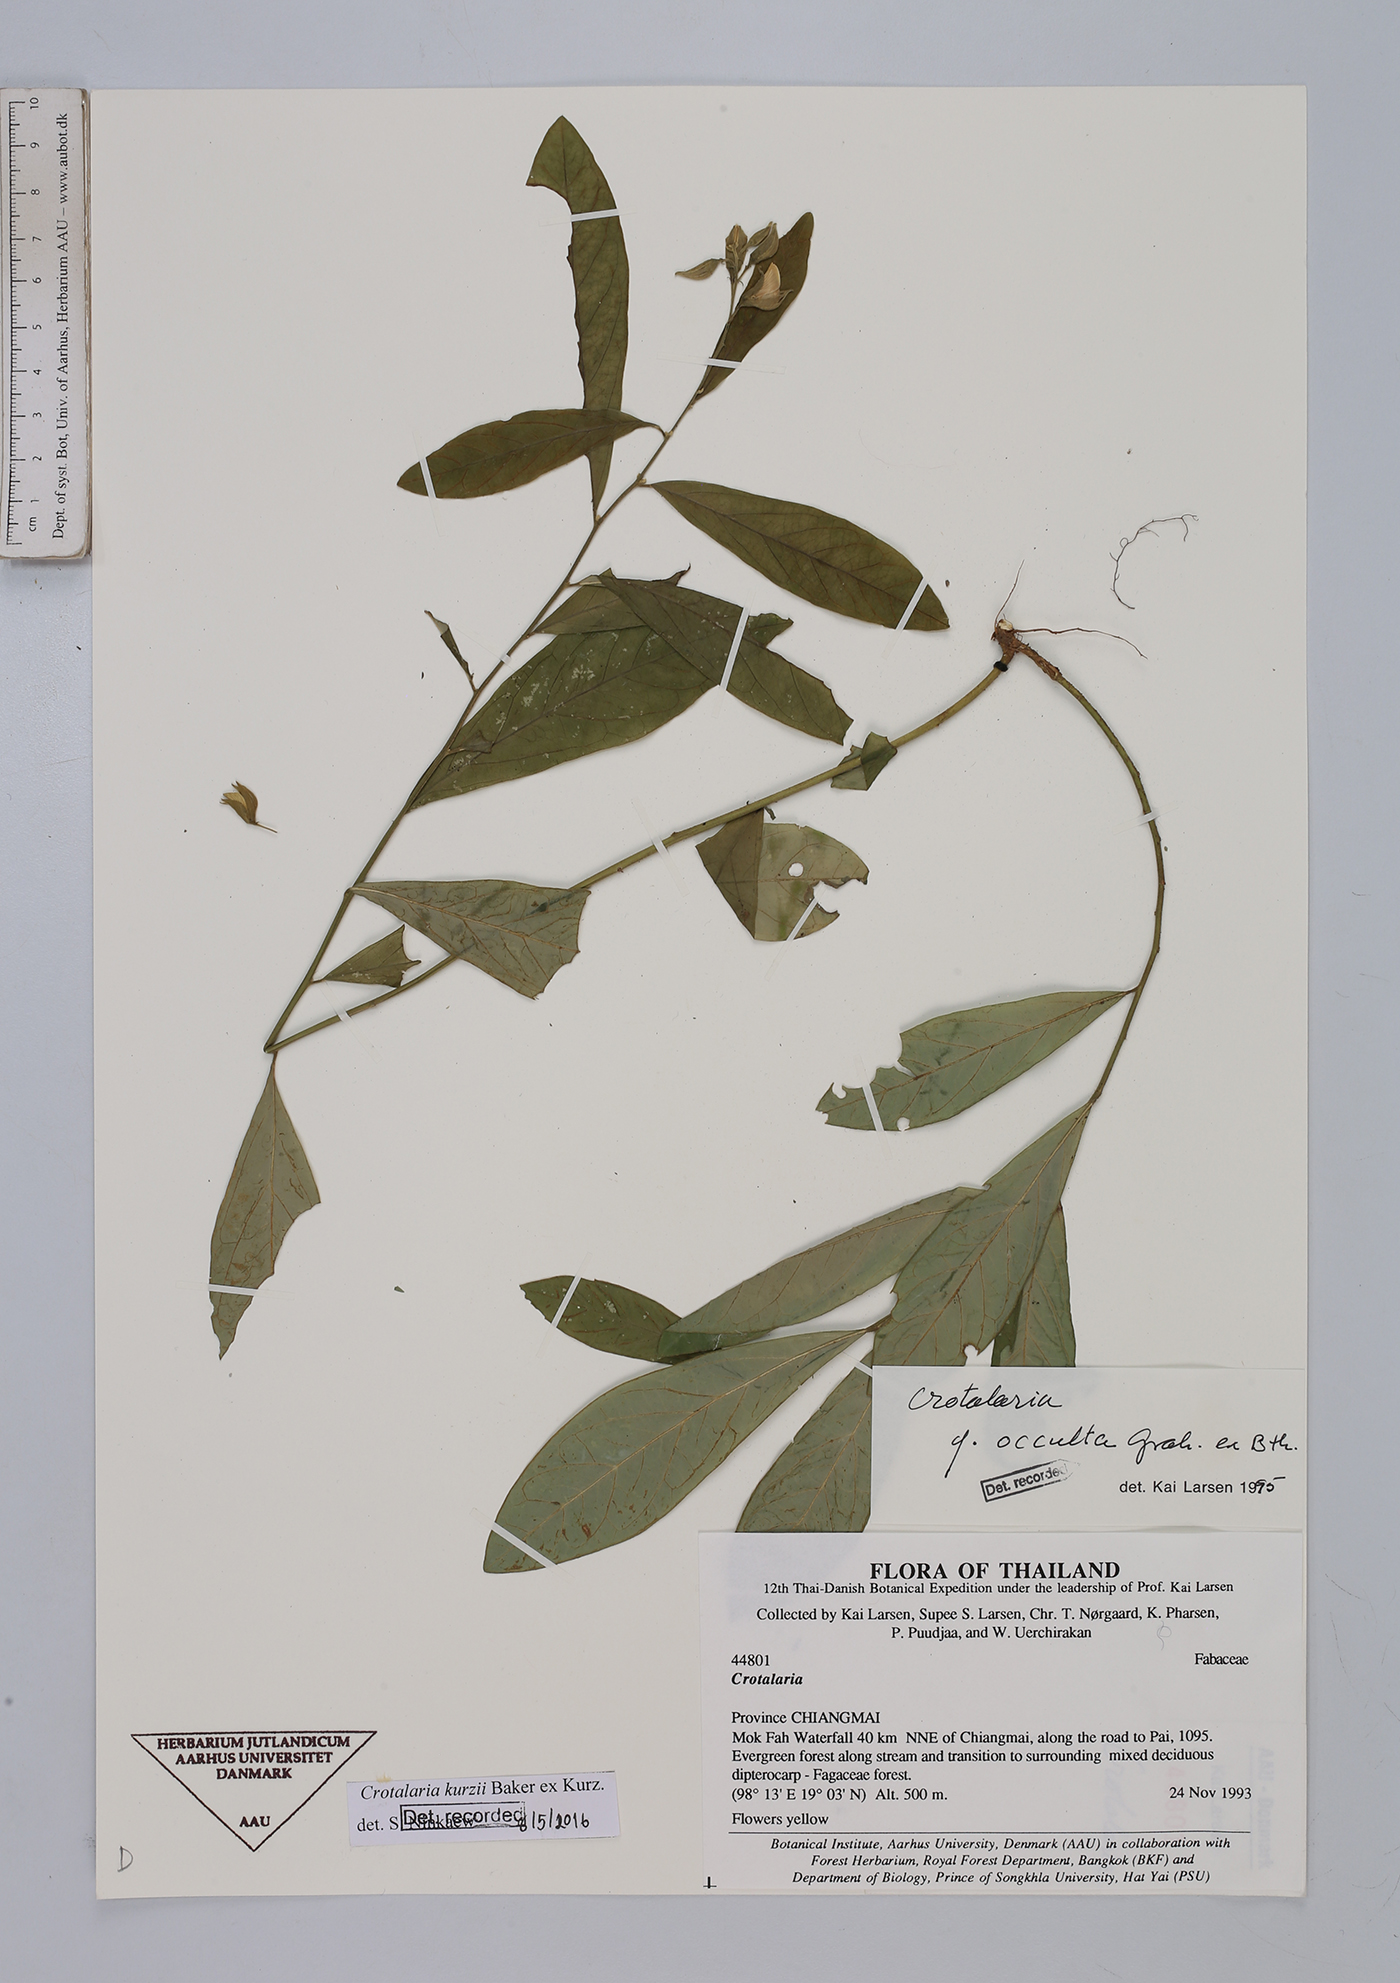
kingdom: Plantae
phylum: Tracheophyta
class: Magnoliopsida
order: Fabales
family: Fabaceae
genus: Crotalaria
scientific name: Crotalaria kurzii
